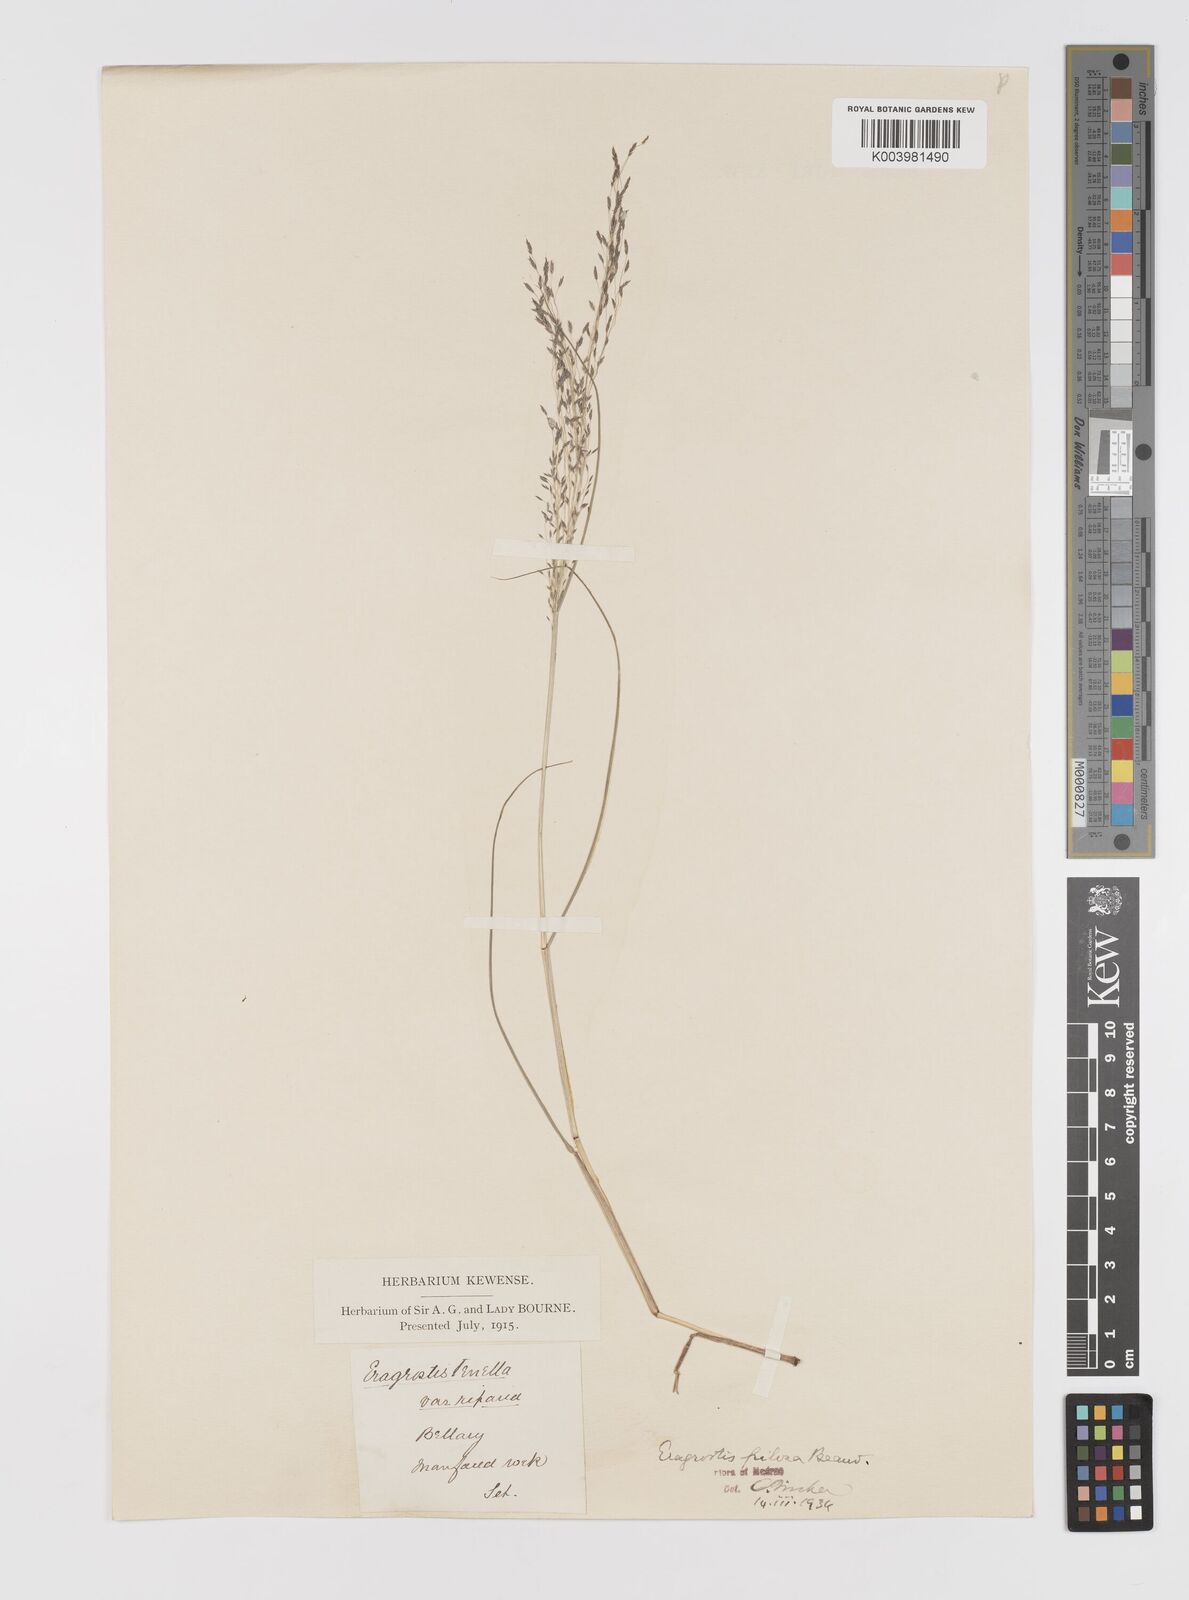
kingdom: Plantae
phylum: Tracheophyta
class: Liliopsida
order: Poales
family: Poaceae
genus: Eragrostis
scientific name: Eragrostis pilosa
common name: Indian lovegrass
